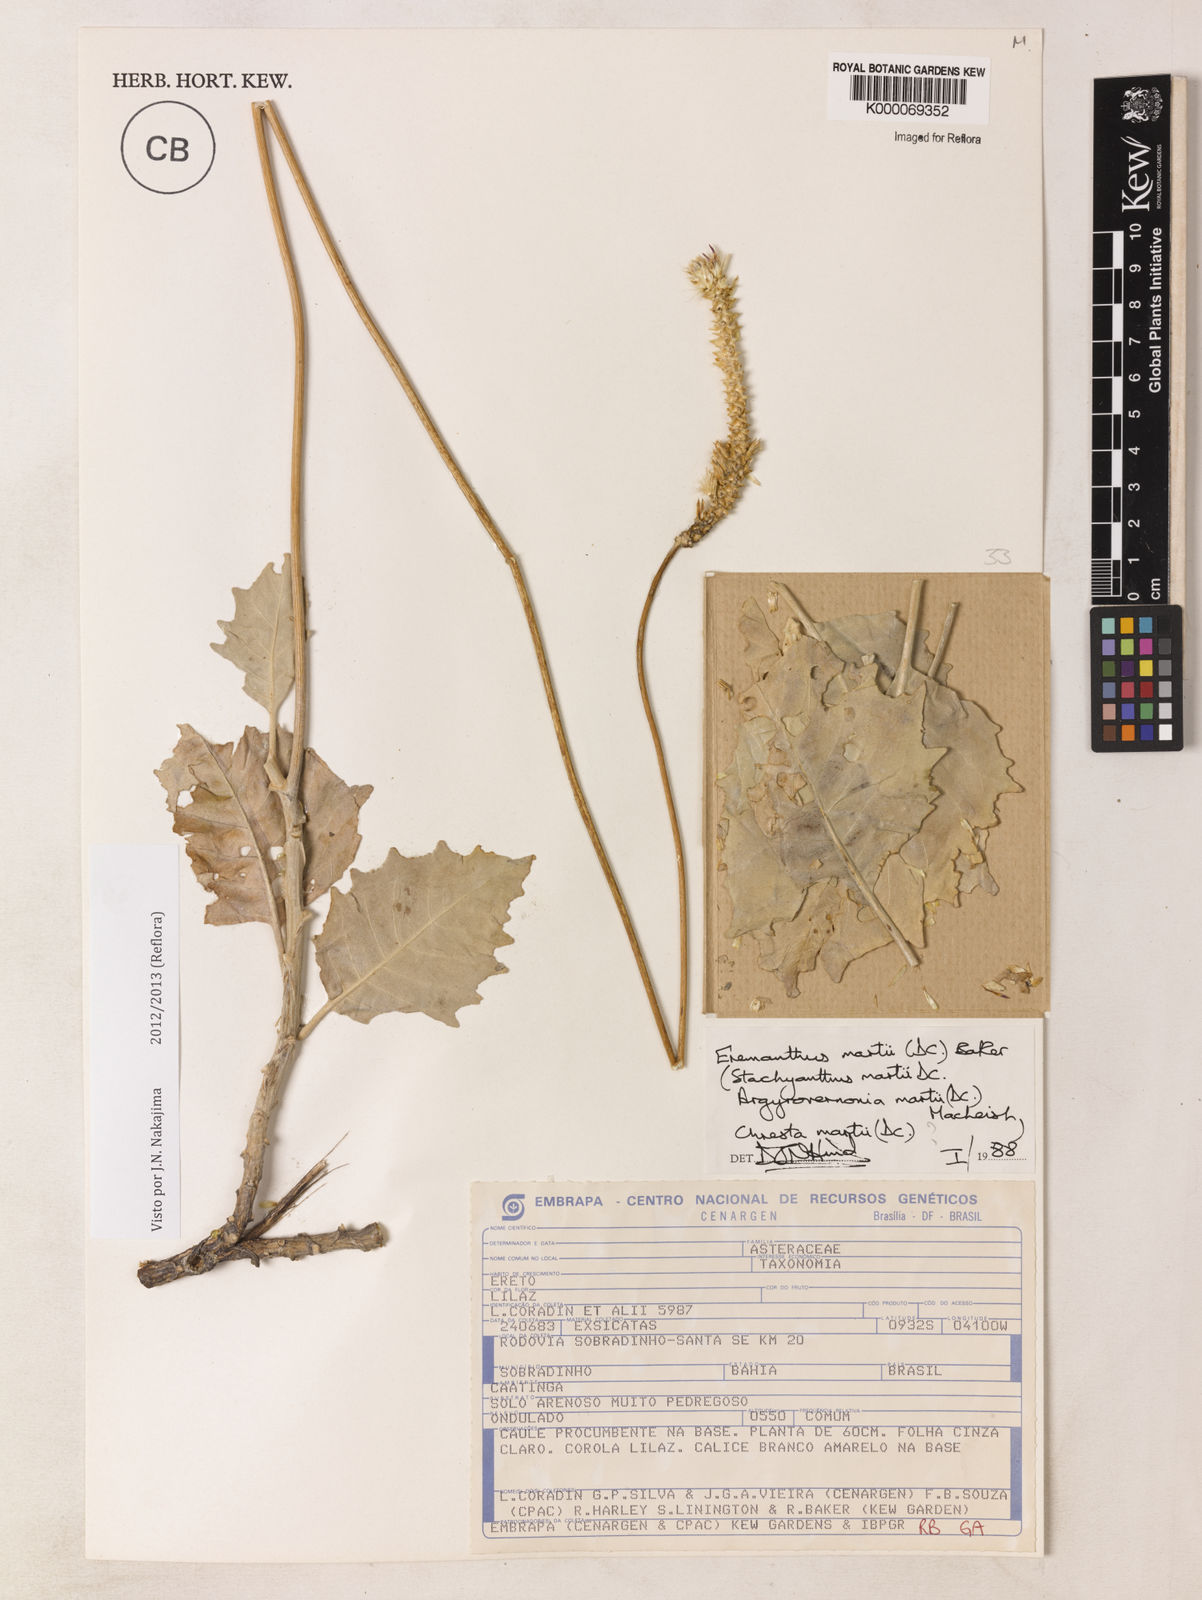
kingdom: Plantae
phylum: Tracheophyta
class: Magnoliopsida
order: Asterales
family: Asteraceae
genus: Chresta
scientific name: Chresta martii
